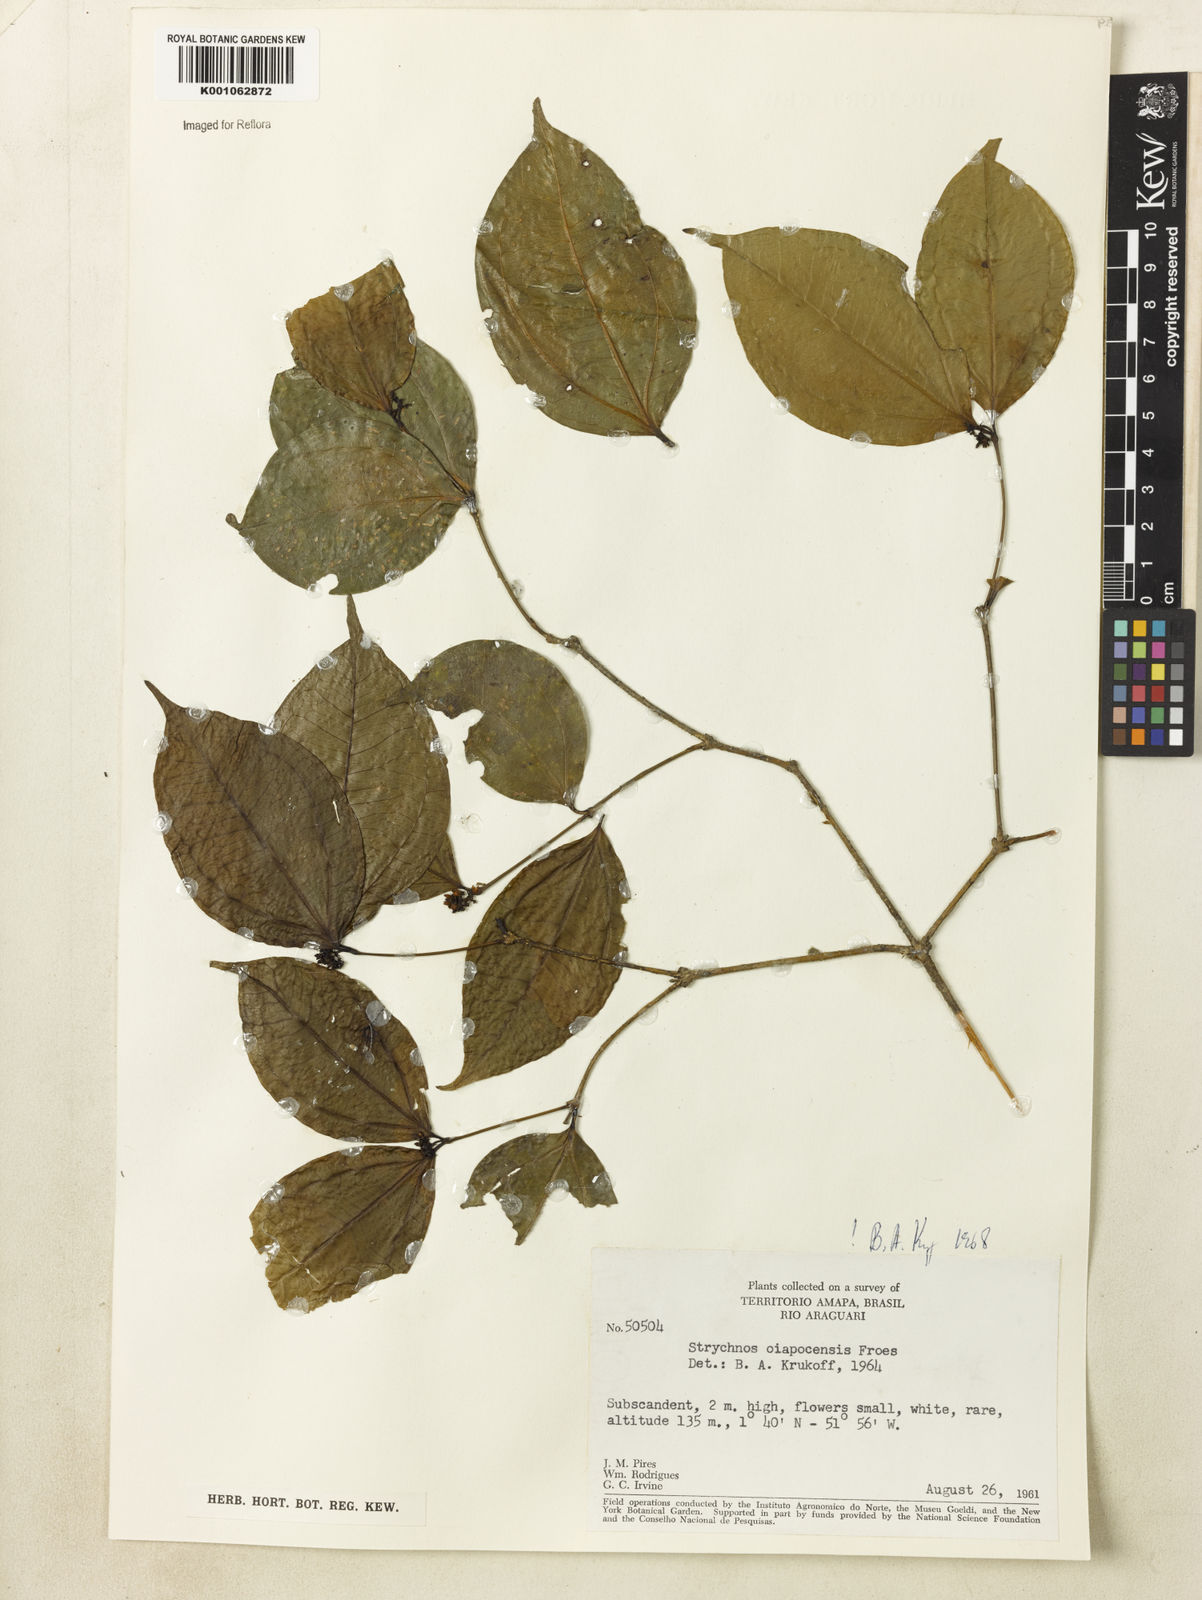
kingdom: Plantae
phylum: Tracheophyta
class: Magnoliopsida
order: Gentianales
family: Loganiaceae
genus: Strychnos
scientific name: Strychnos
